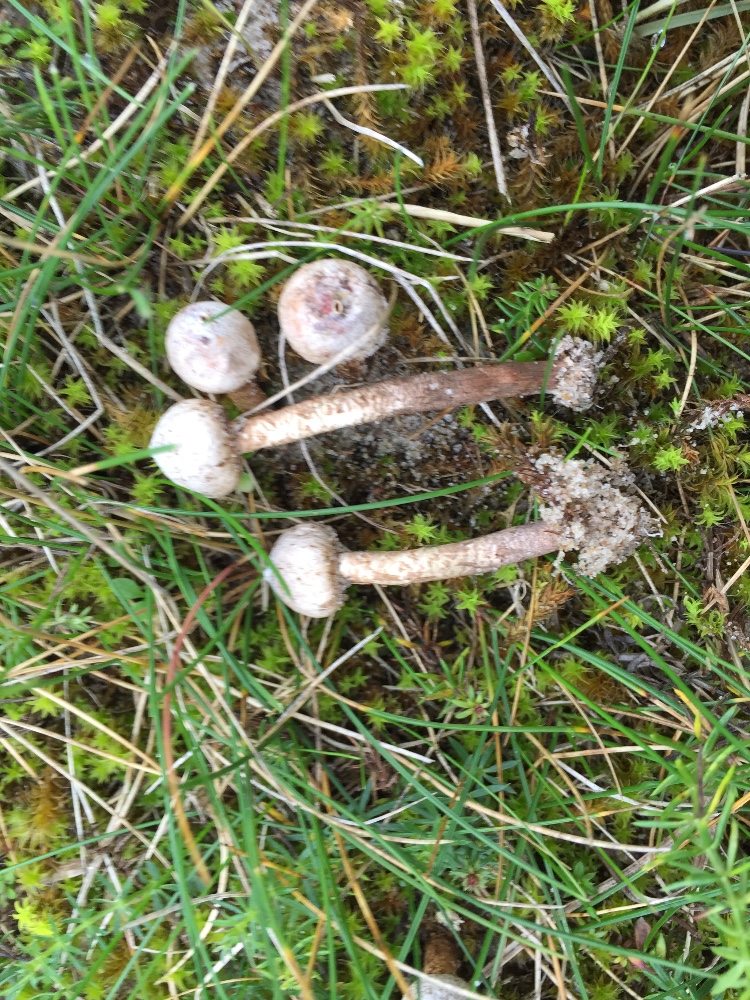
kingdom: Fungi
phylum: Basidiomycota
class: Agaricomycetes
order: Agaricales
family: Agaricaceae
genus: Tulostoma
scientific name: Tulostoma brumale
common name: vinter-stilkbovist
